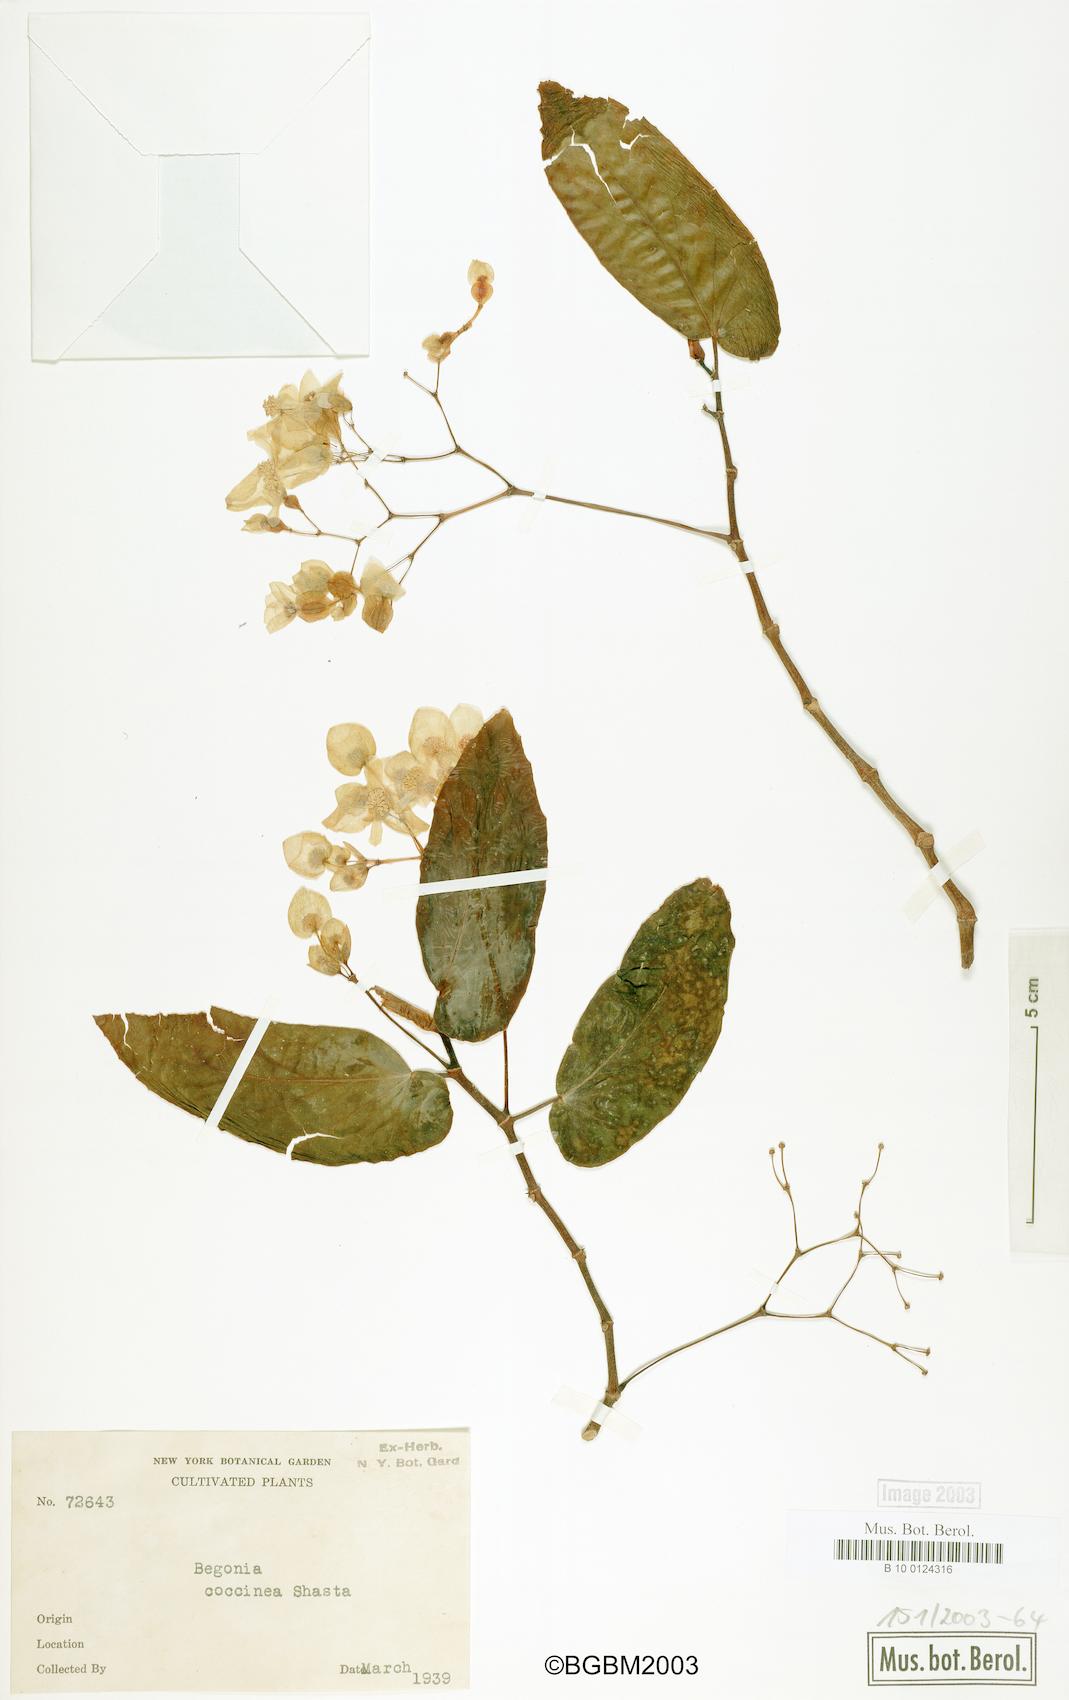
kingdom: Plantae
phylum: Tracheophyta
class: Magnoliopsida
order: Cucurbitales
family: Begoniaceae
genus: Begonia
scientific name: Begonia coccinea
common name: Angel-wing begonia
